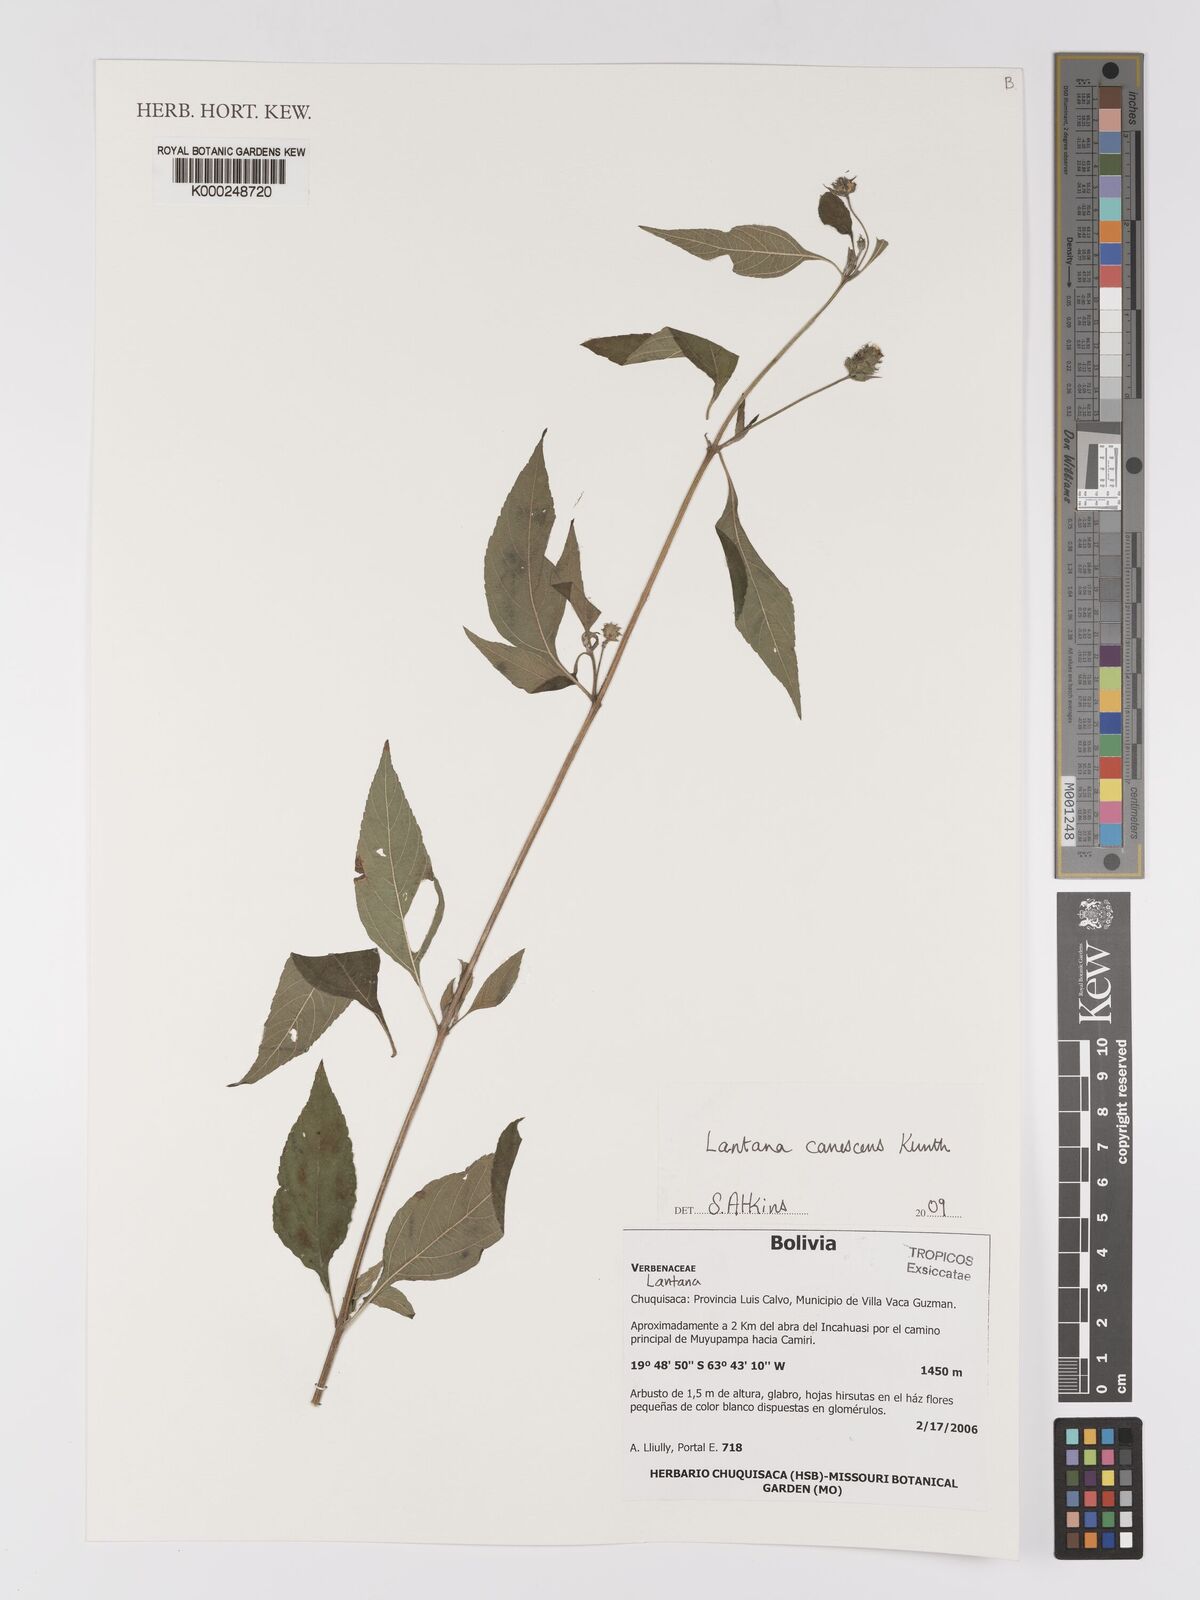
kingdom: Plantae
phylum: Tracheophyta
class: Magnoliopsida
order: Lamiales
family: Verbenaceae
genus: Lantana
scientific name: Lantana canescens
